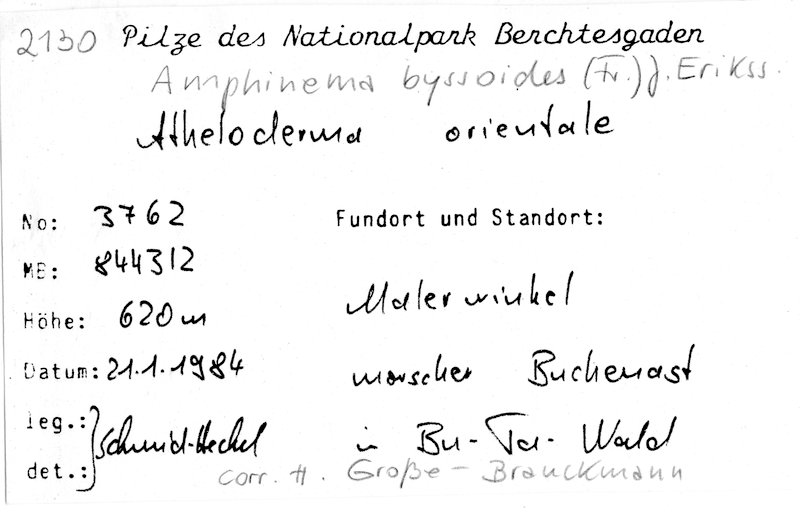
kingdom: Plantae
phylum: Tracheophyta
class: Magnoliopsida
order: Fagales
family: Fagaceae
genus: Fagus
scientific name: Fagus sylvatica
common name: Beech
